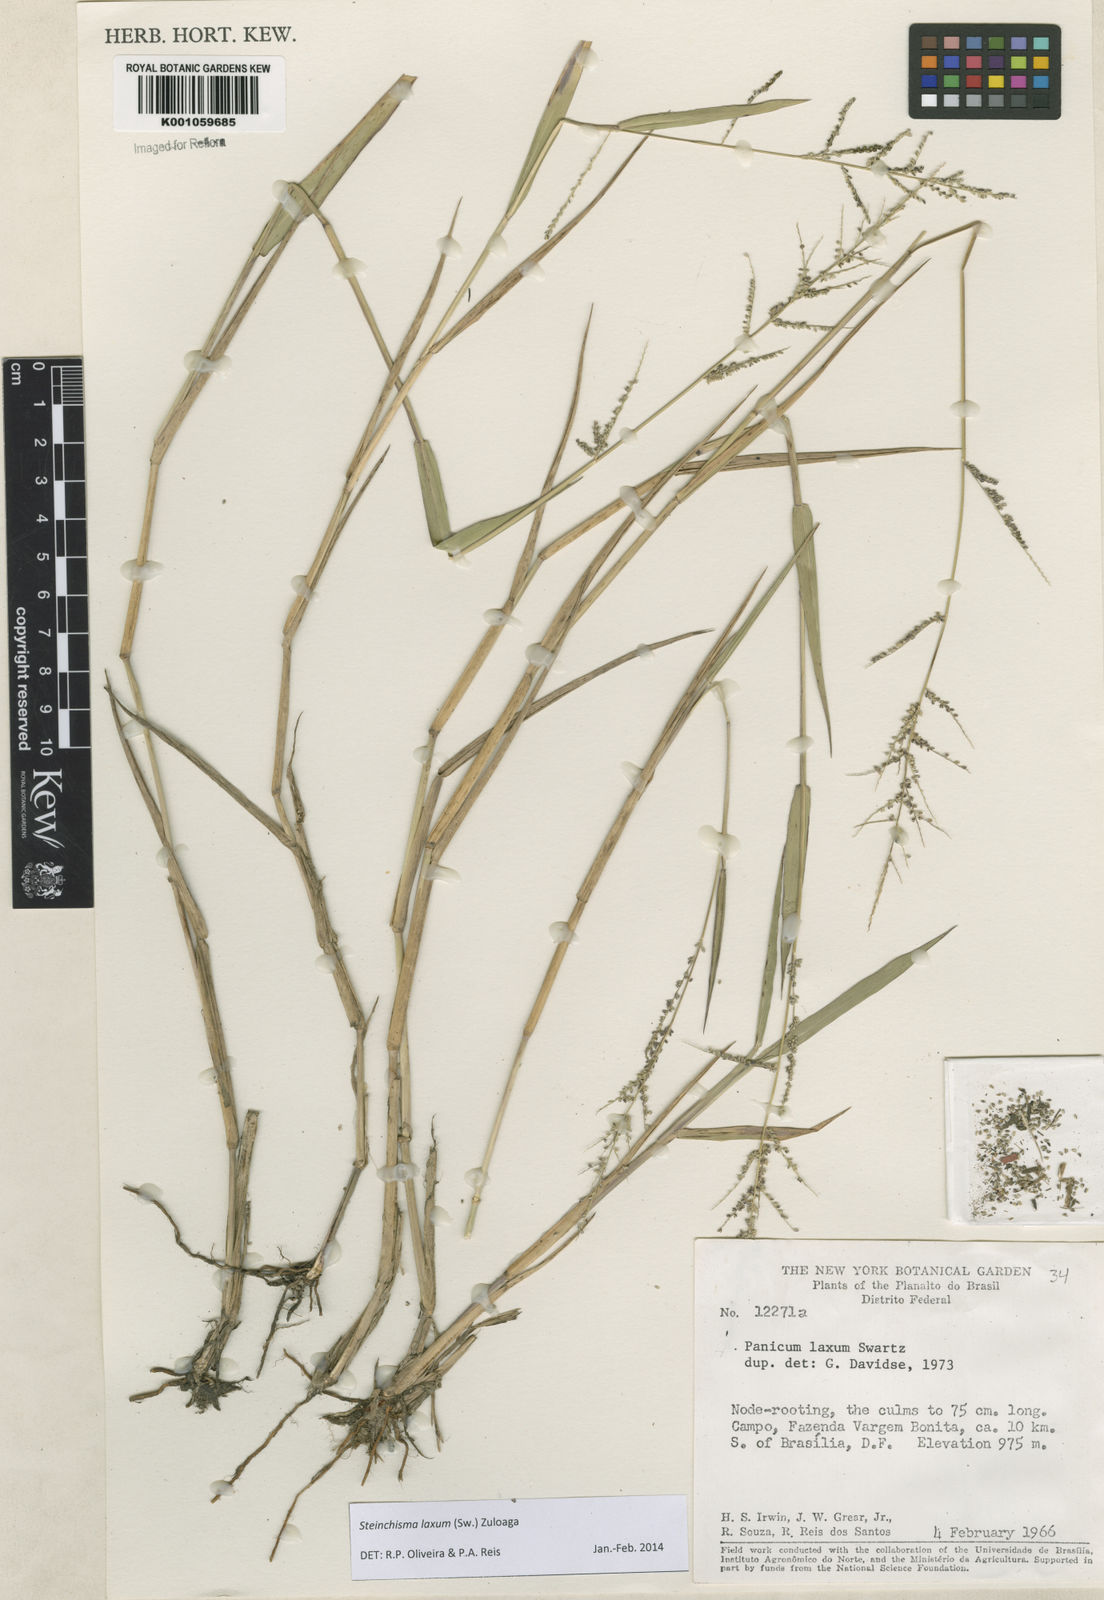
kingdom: Plantae
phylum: Tracheophyta
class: Liliopsida
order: Poales
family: Poaceae
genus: Steinchisma
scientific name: Steinchisma laxum
